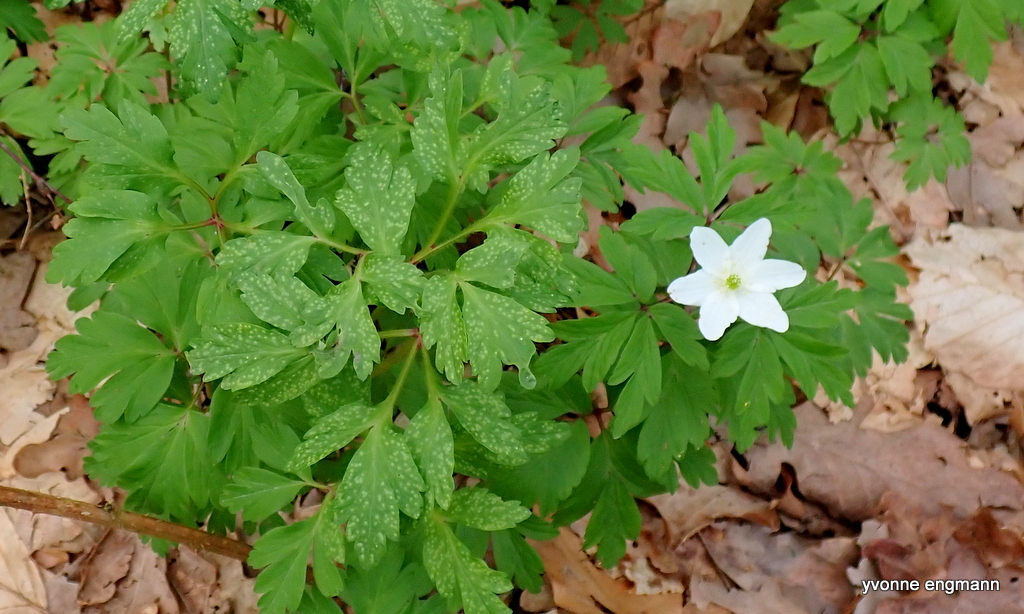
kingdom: Fungi
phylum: Basidiomycota
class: Pucciniomycetes
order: Pucciniales
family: Ochropsoraceae
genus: Ochropsora
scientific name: Ochropsora ariae
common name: anemone-okkerpletrust
